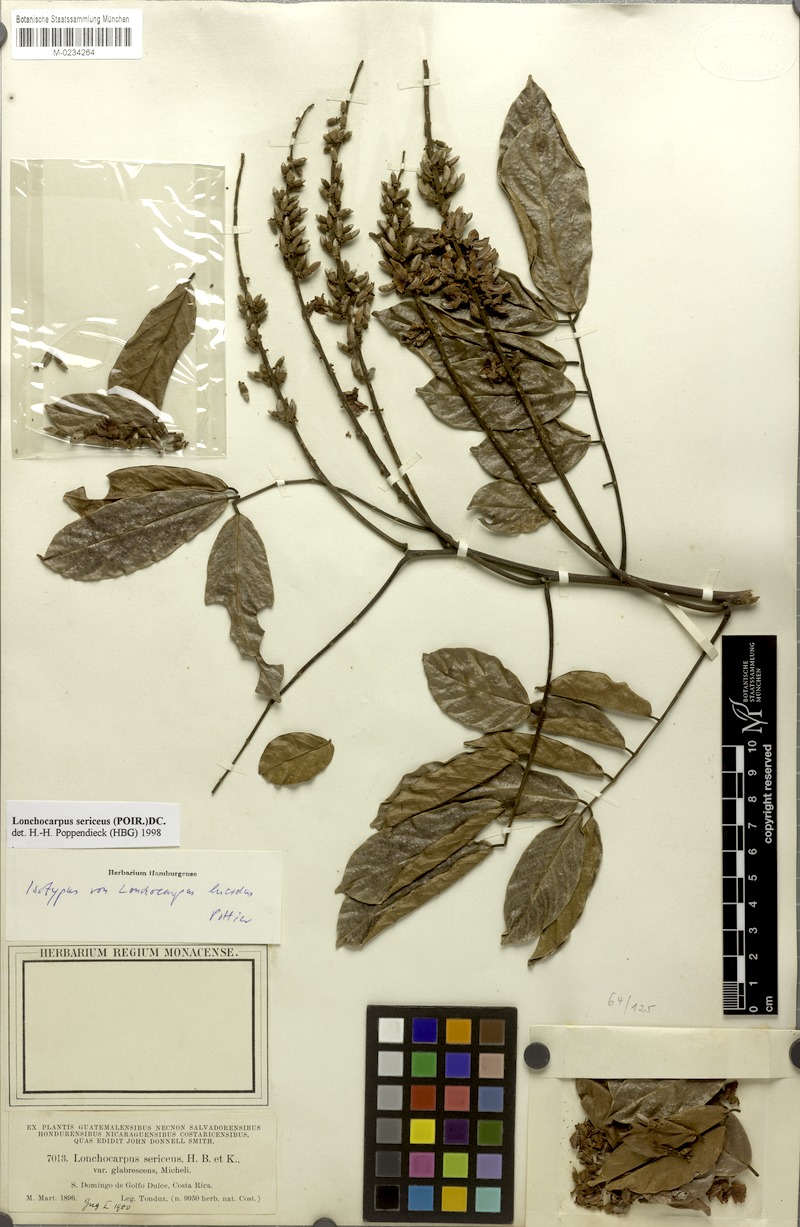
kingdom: Plantae
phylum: Tracheophyta
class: Magnoliopsida
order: Fabales
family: Fabaceae
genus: Lonchocarpus
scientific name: Lonchocarpus macrophyllus
